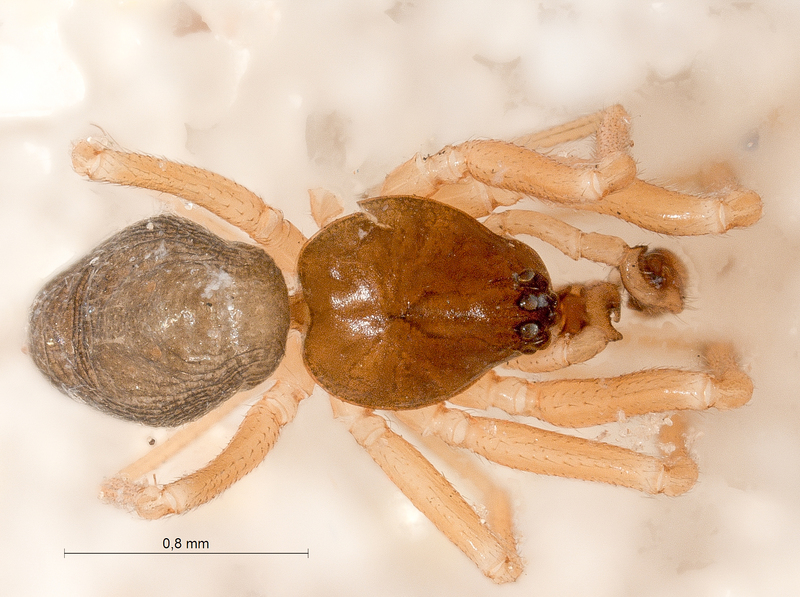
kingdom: Animalia
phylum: Arthropoda
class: Arachnida
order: Araneae
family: Linyphiidae
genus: Gonatium
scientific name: Gonatium paradoxum
